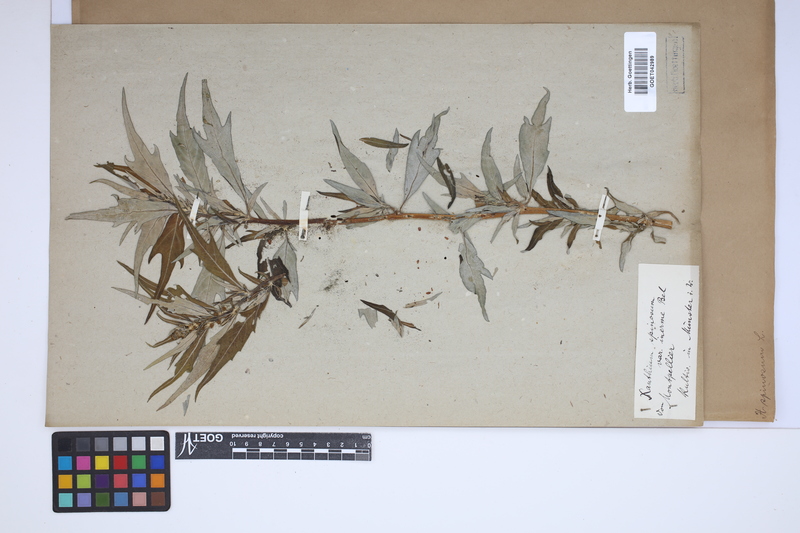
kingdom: Plantae
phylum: Tracheophyta
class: Magnoliopsida
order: Asterales
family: Asteraceae
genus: Xanthium
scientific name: Xanthium spinosum
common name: Spiny cocklebur
